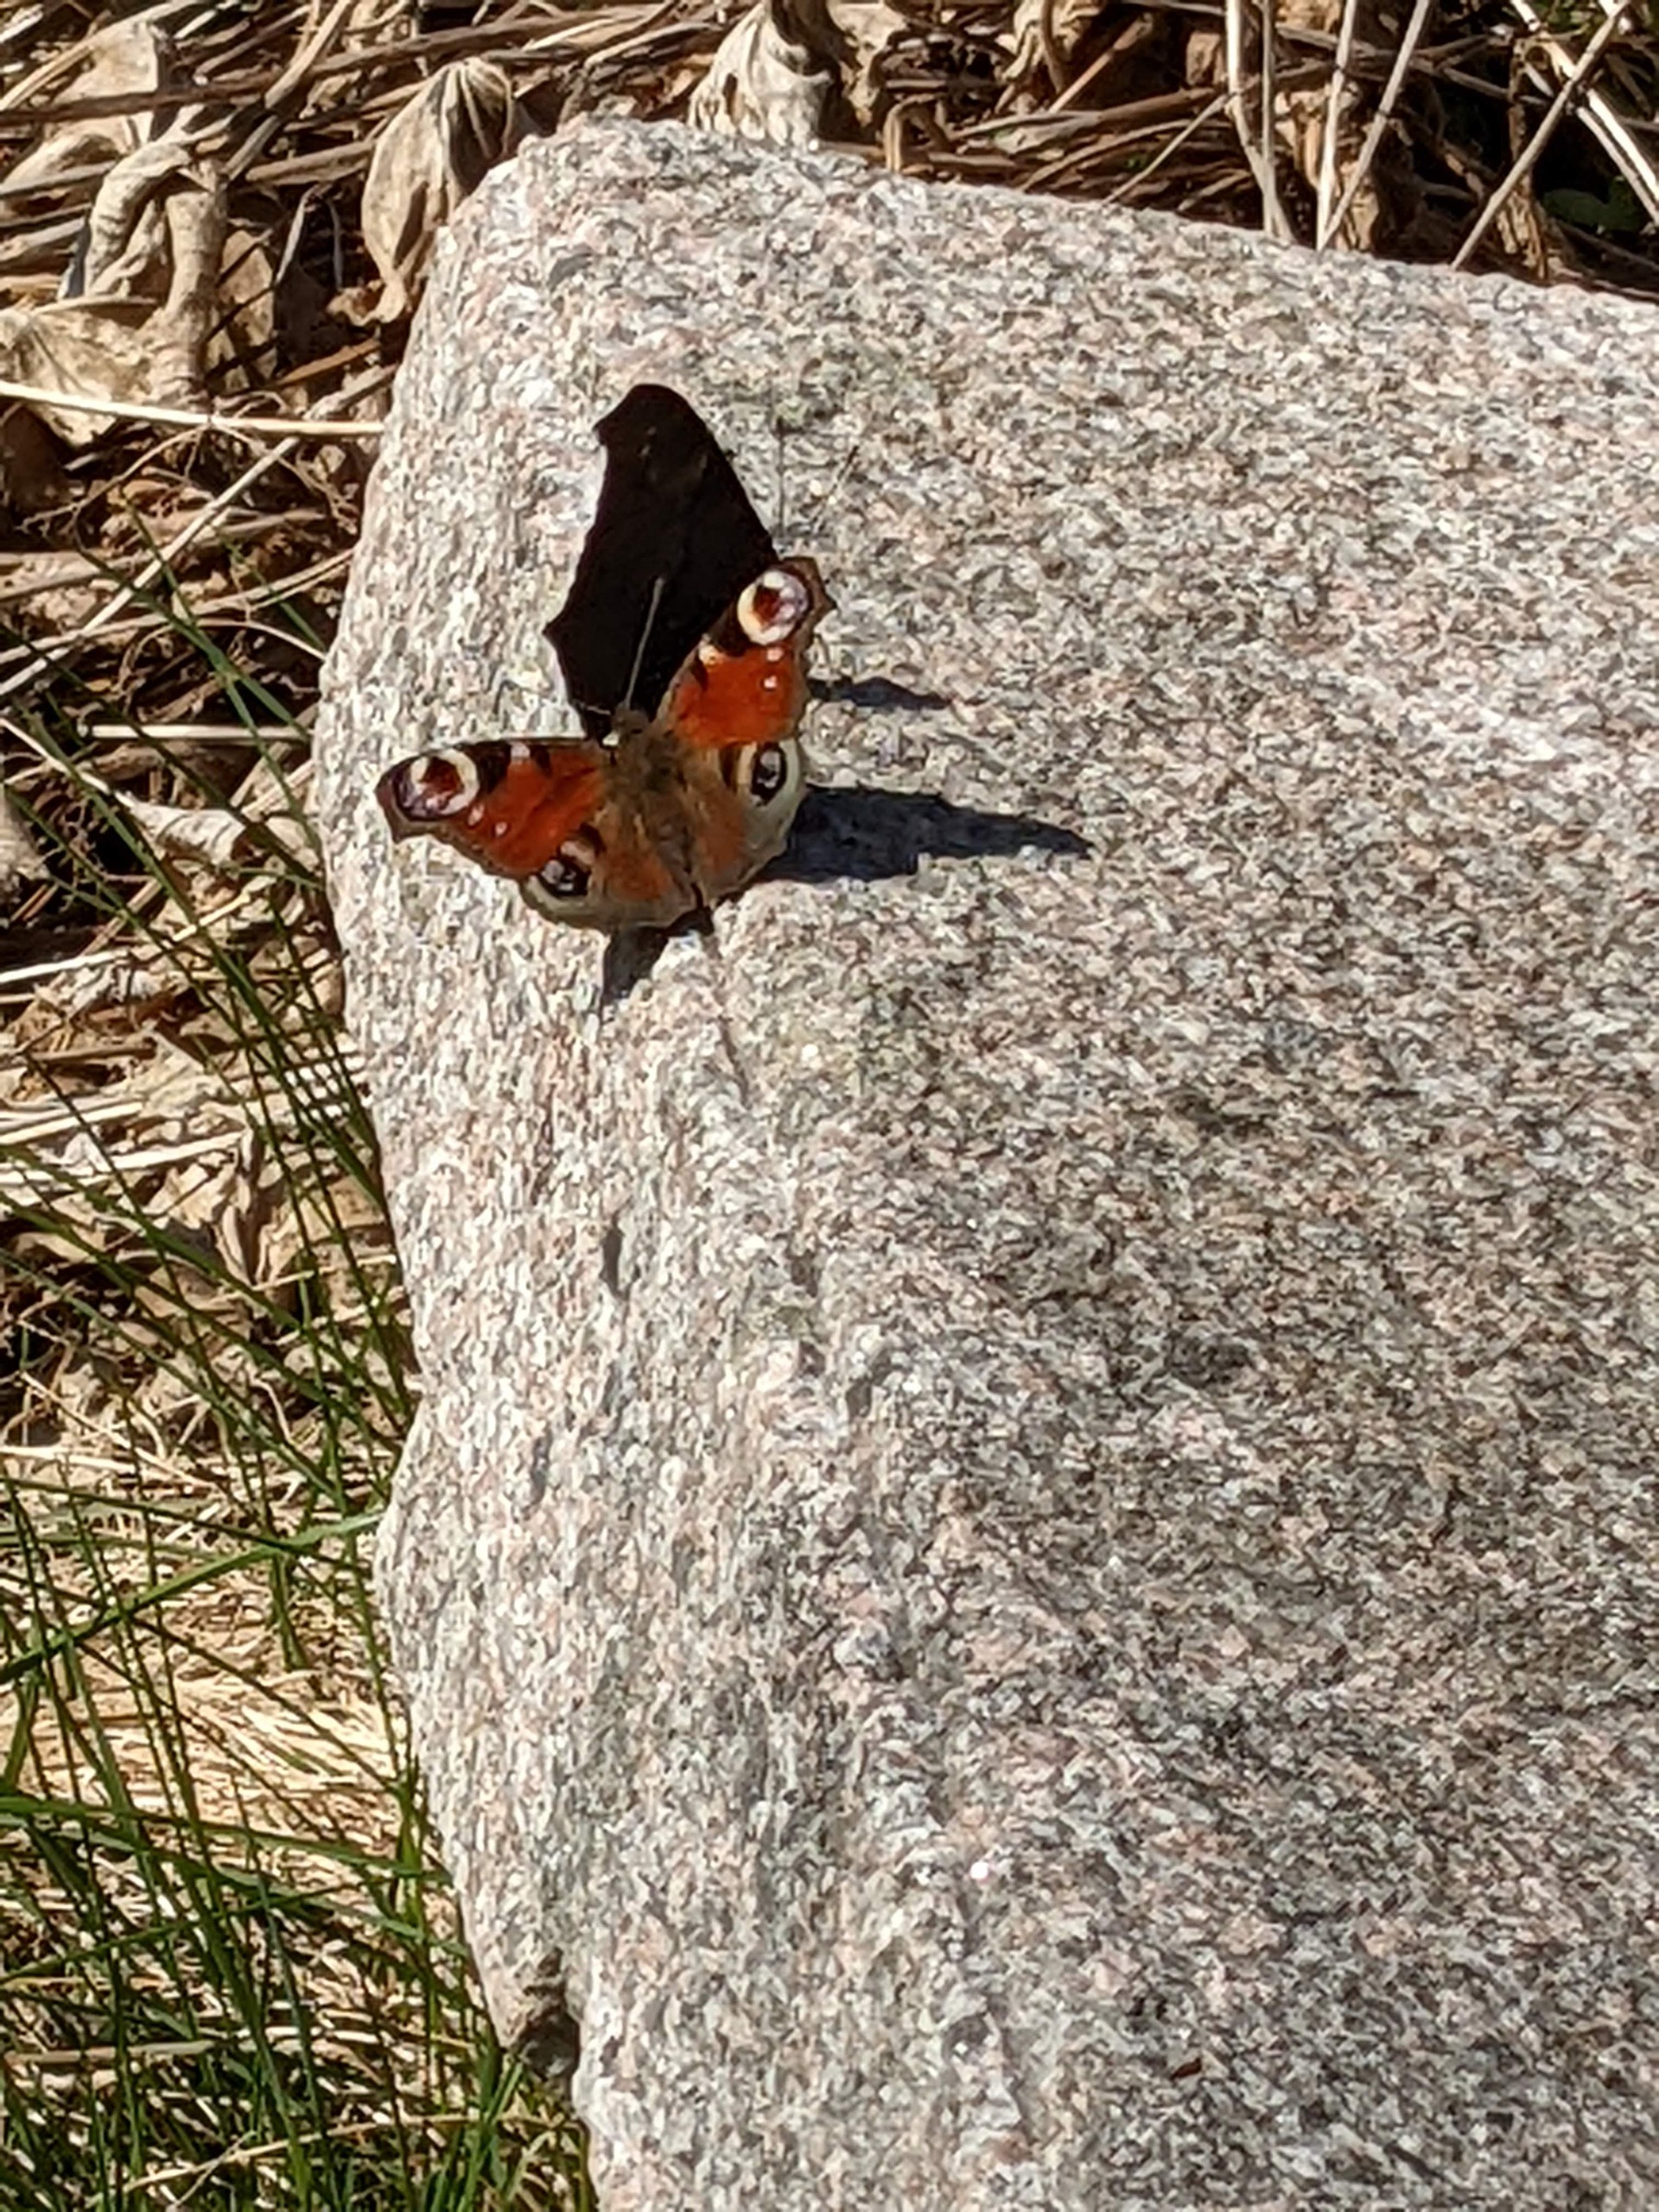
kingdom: Animalia
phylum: Arthropoda
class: Insecta
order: Lepidoptera
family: Nymphalidae
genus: Aglais
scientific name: Aglais io
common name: Dagpåfugleøje
